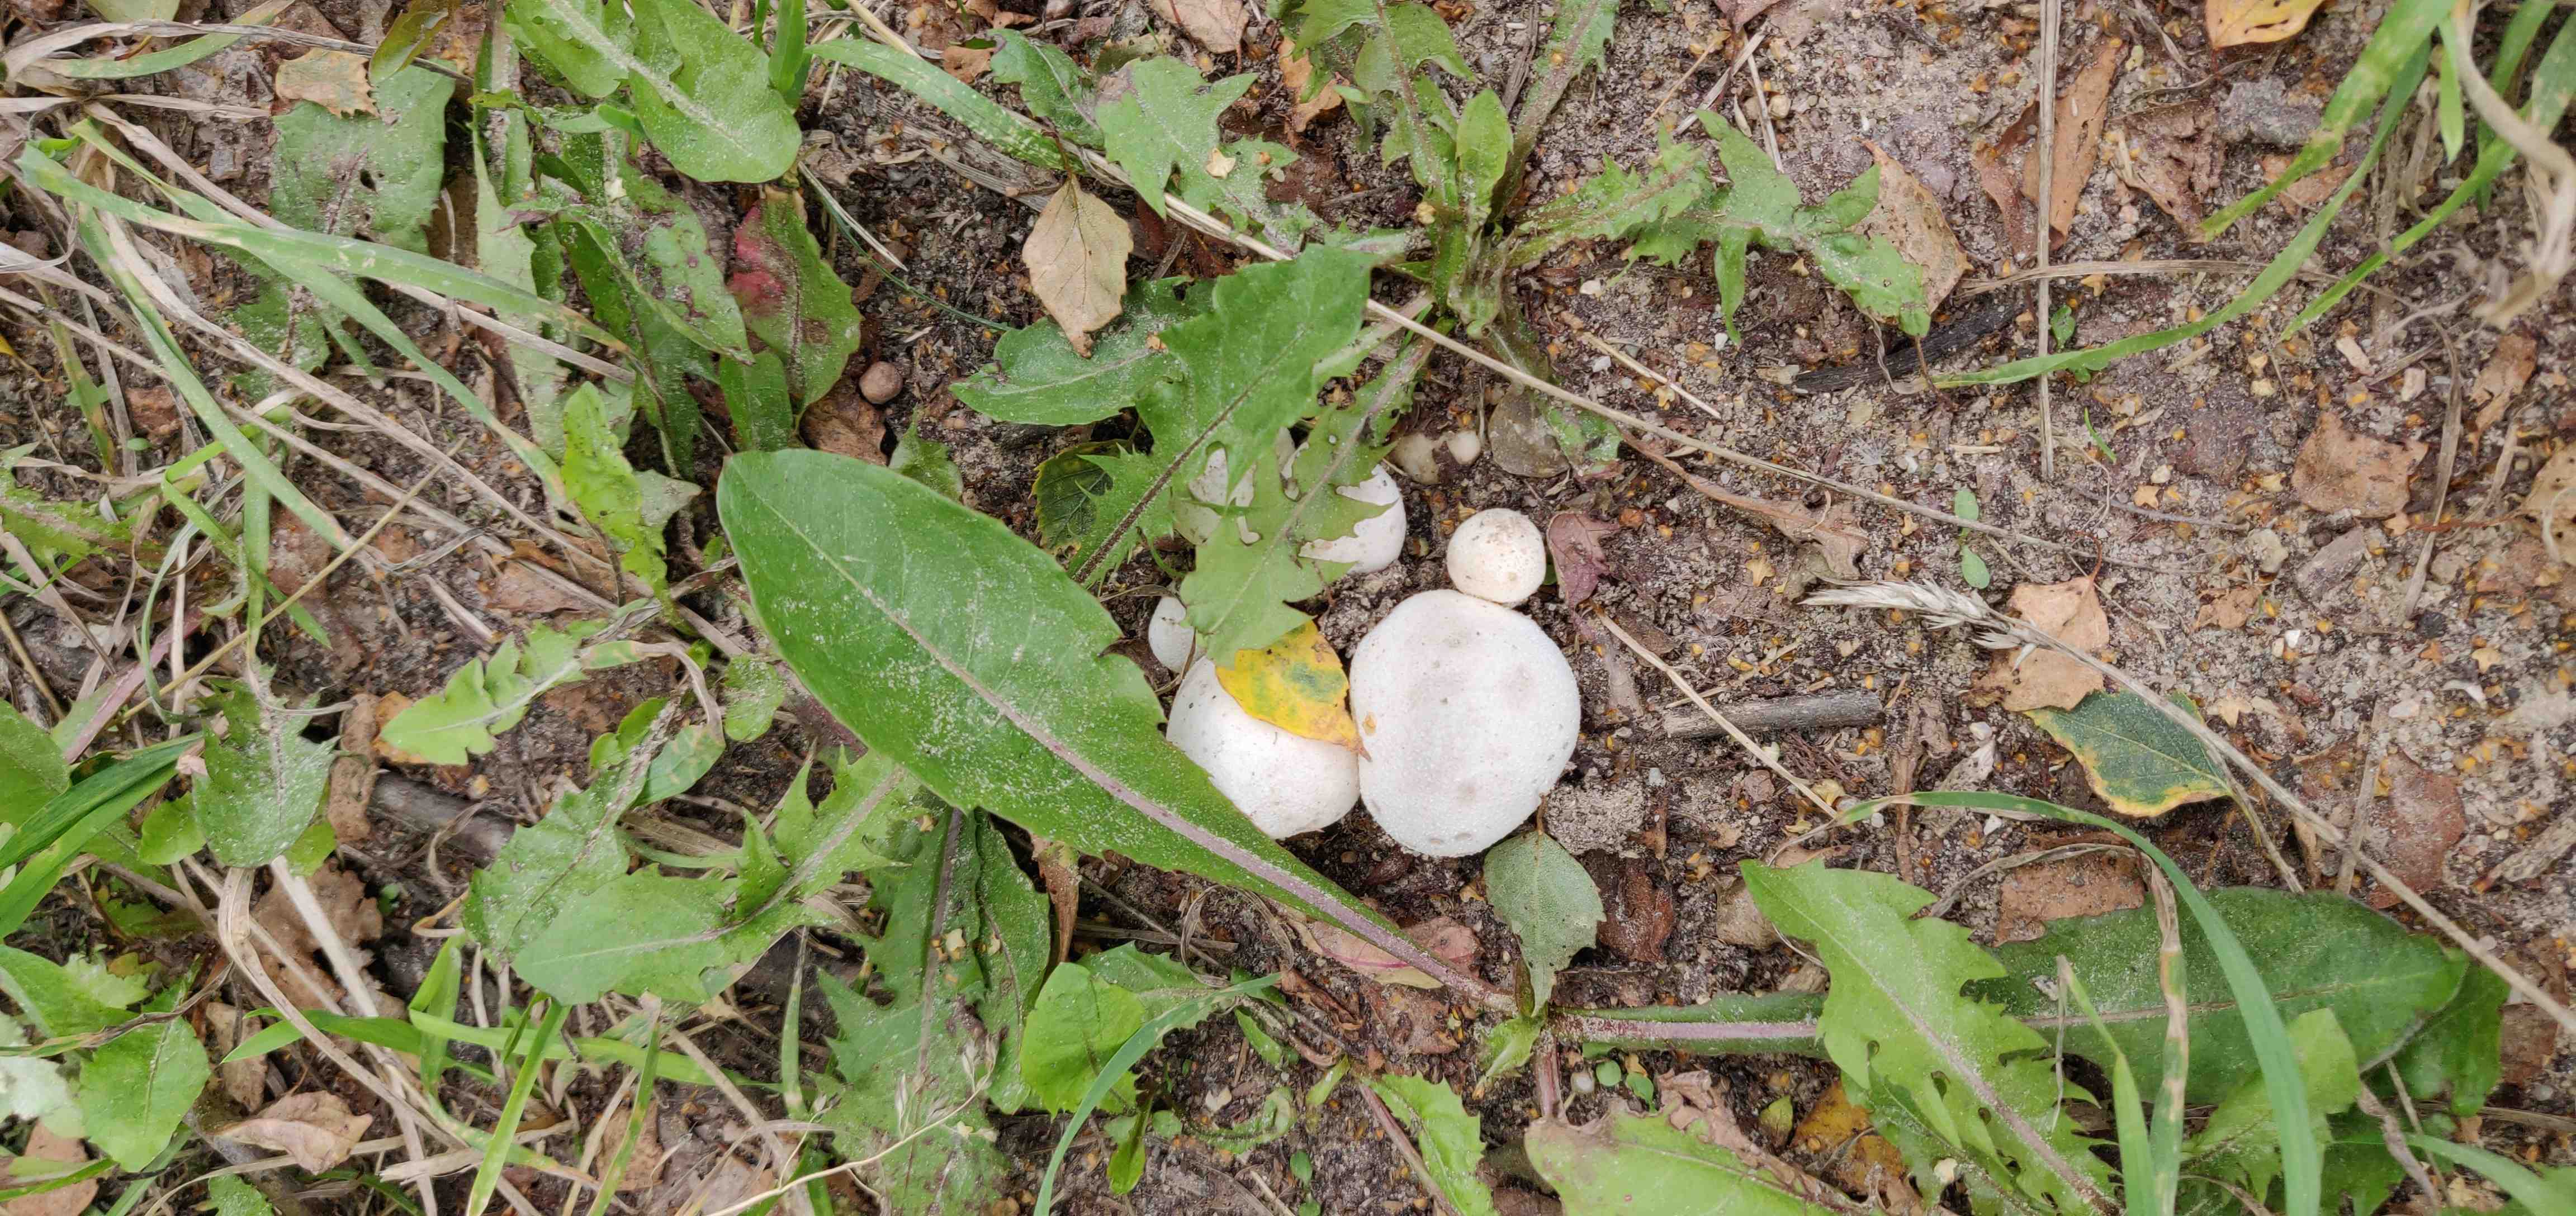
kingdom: Fungi
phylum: Basidiomycota
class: Agaricomycetes
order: Agaricales
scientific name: Agaricales
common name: champignonordenen
